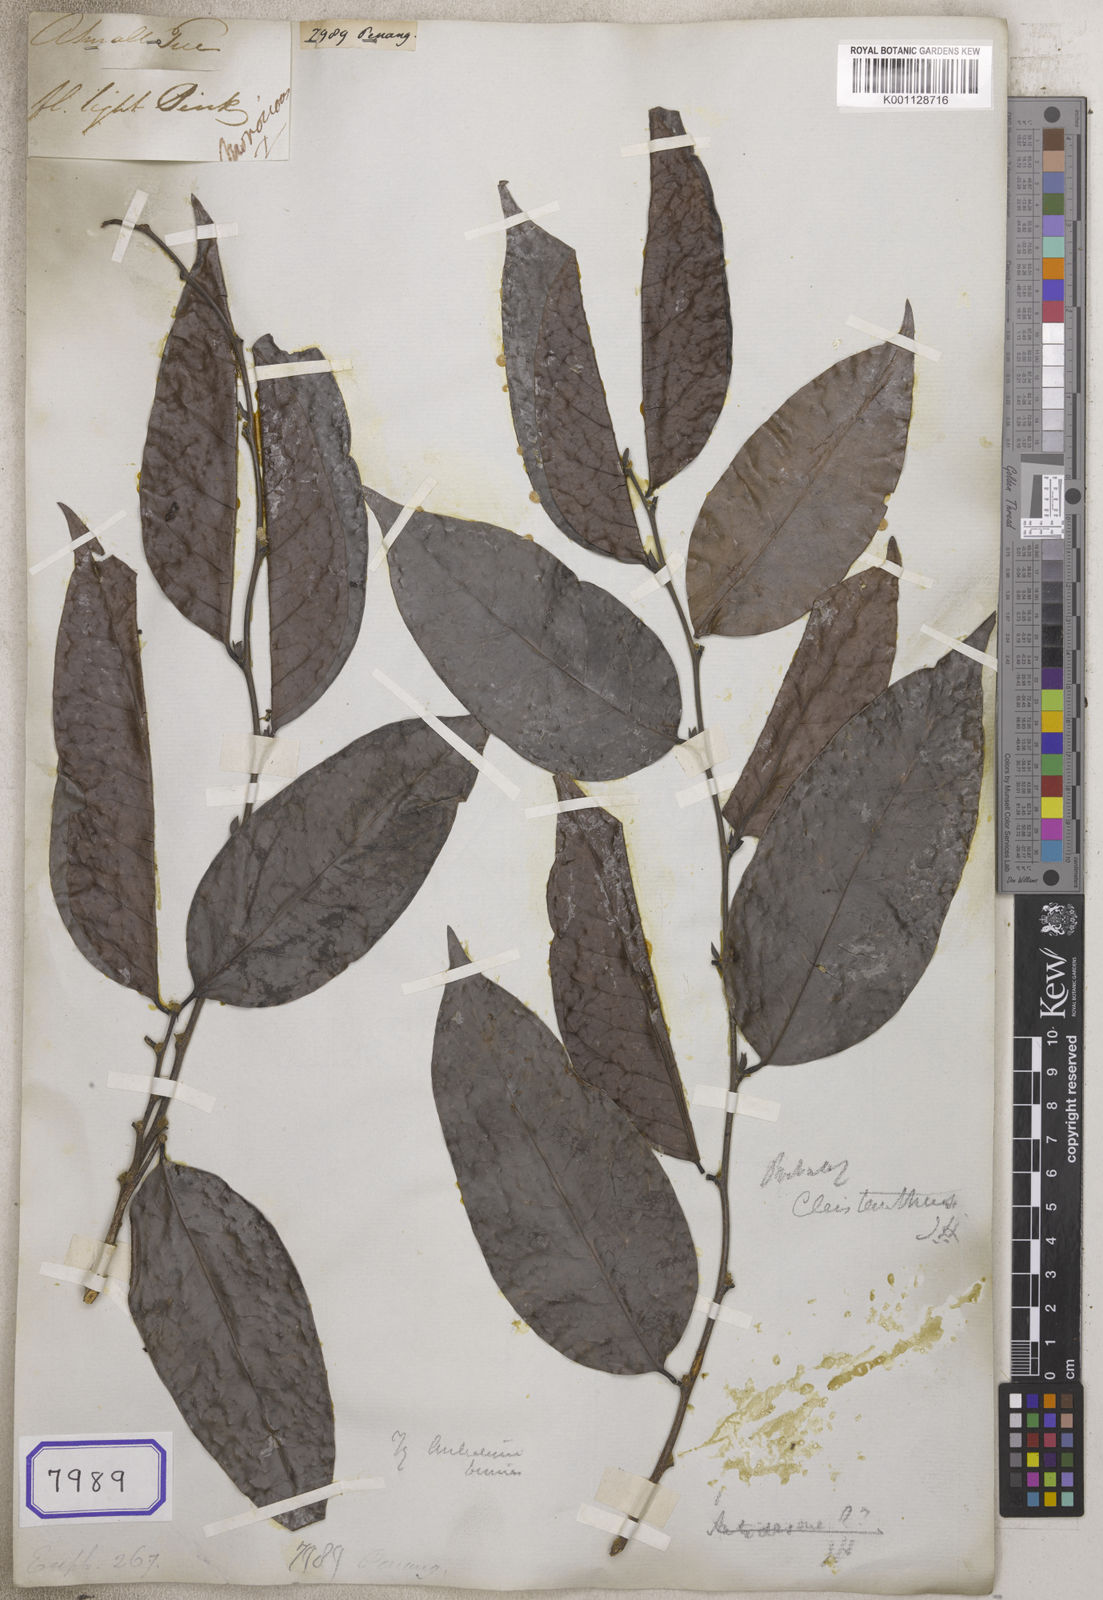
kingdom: Plantae
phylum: Tracheophyta
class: Magnoliopsida
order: Malpighiales
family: Euphorbiaceae
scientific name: Euphorbiaceae
